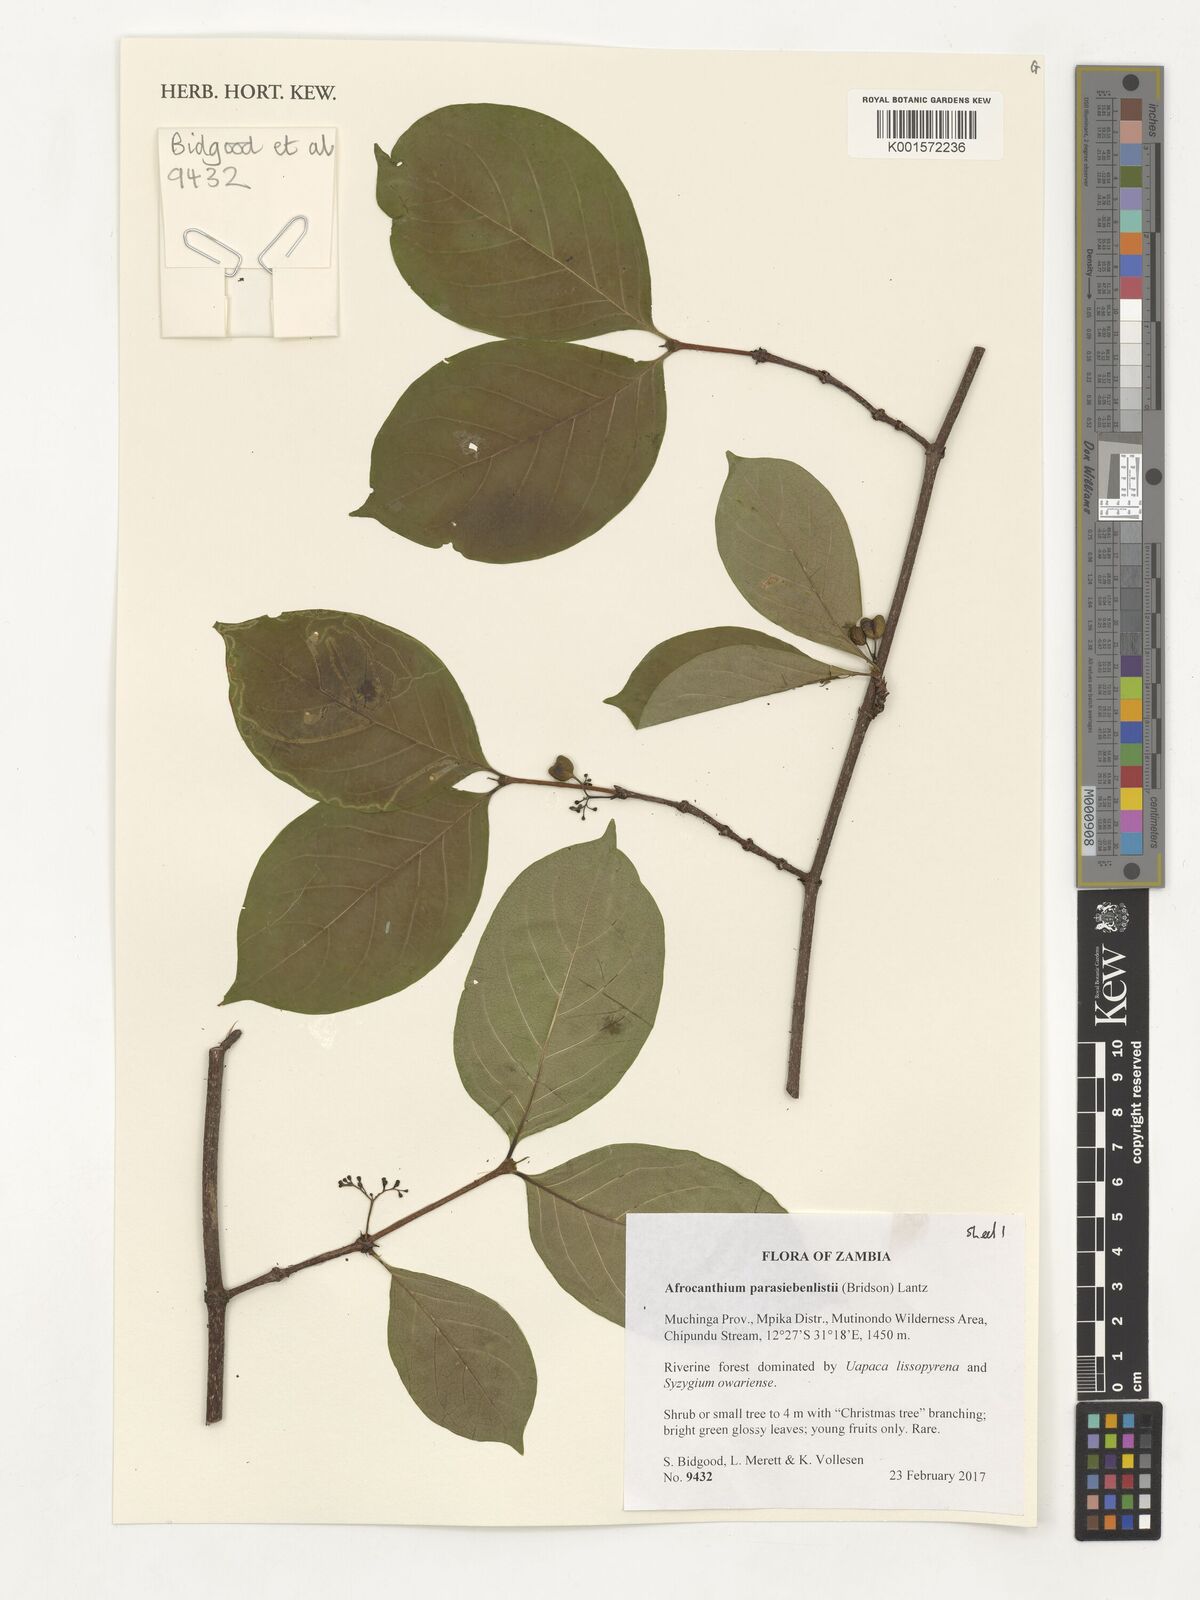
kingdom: Plantae
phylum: Tracheophyta
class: Magnoliopsida
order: Gentianales
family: Rubiaceae
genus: Afrocanthium
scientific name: Afrocanthium parasiebenlistii
